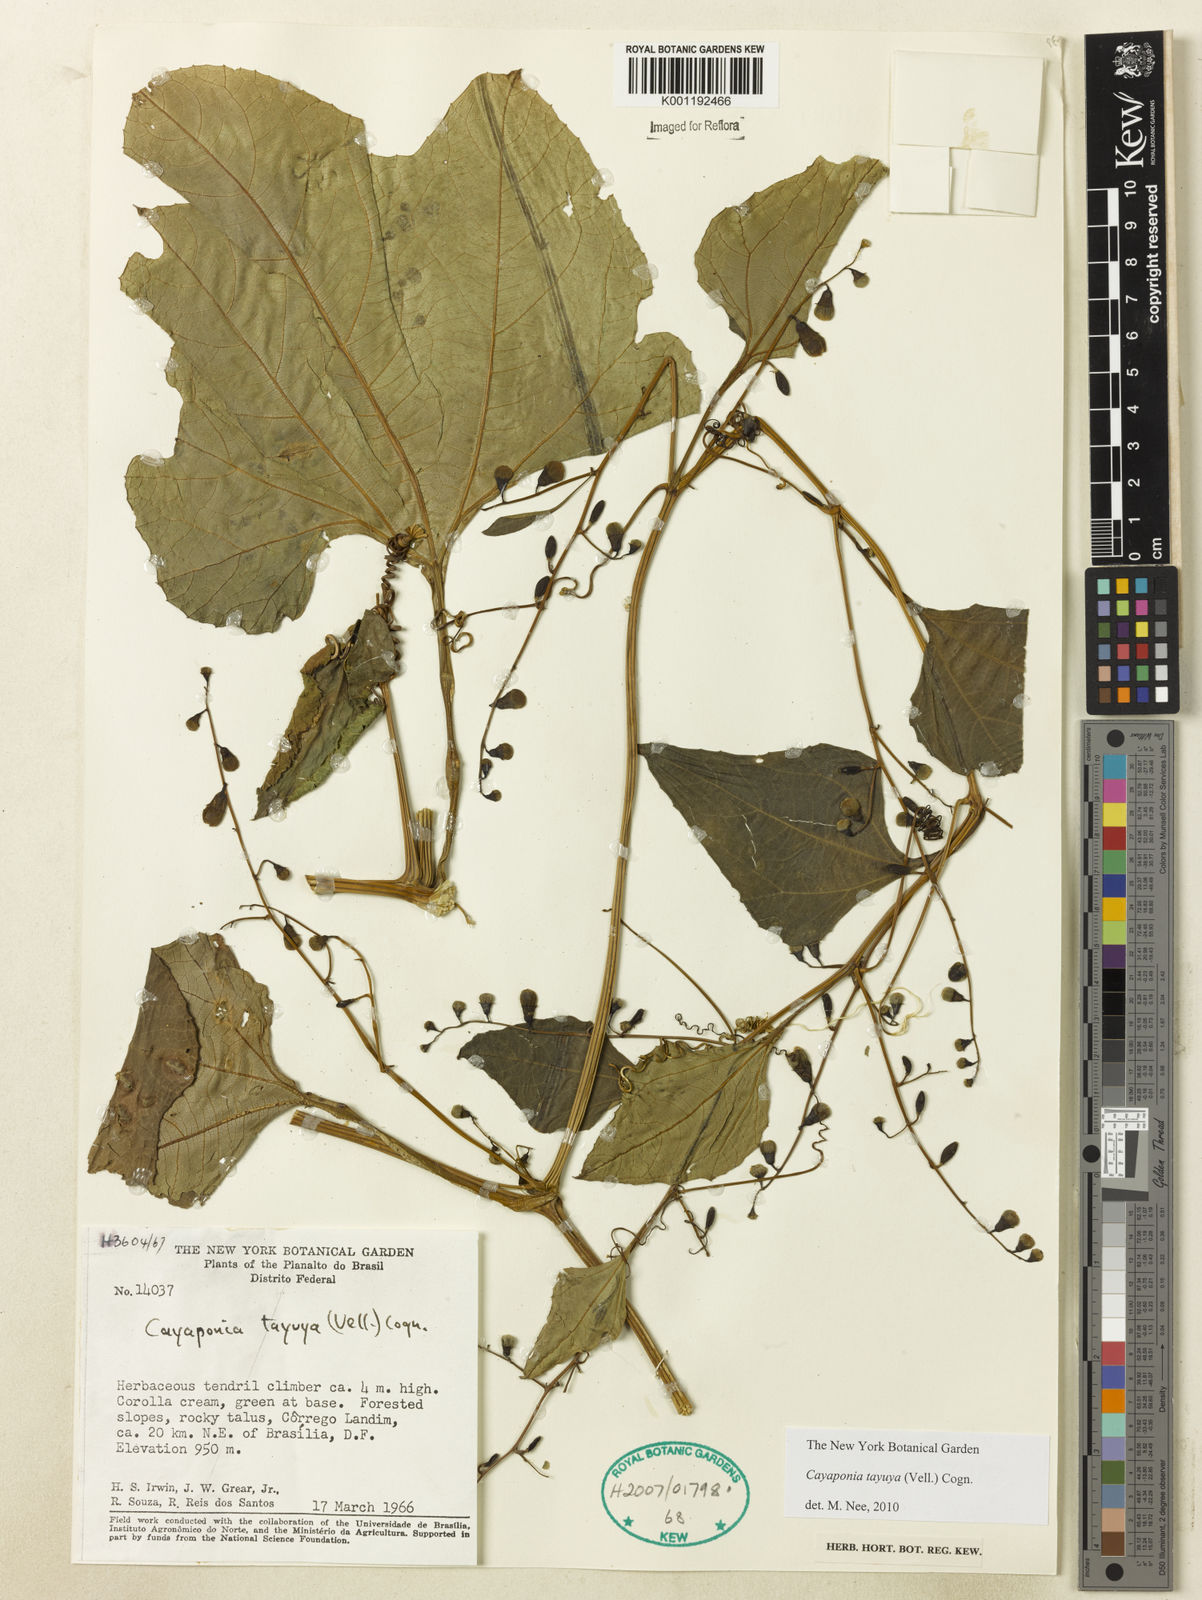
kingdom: Plantae
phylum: Tracheophyta
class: Magnoliopsida
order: Cucurbitales
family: Cucurbitaceae
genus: Cayaponia
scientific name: Cayaponia tayuya
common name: Tayuya
